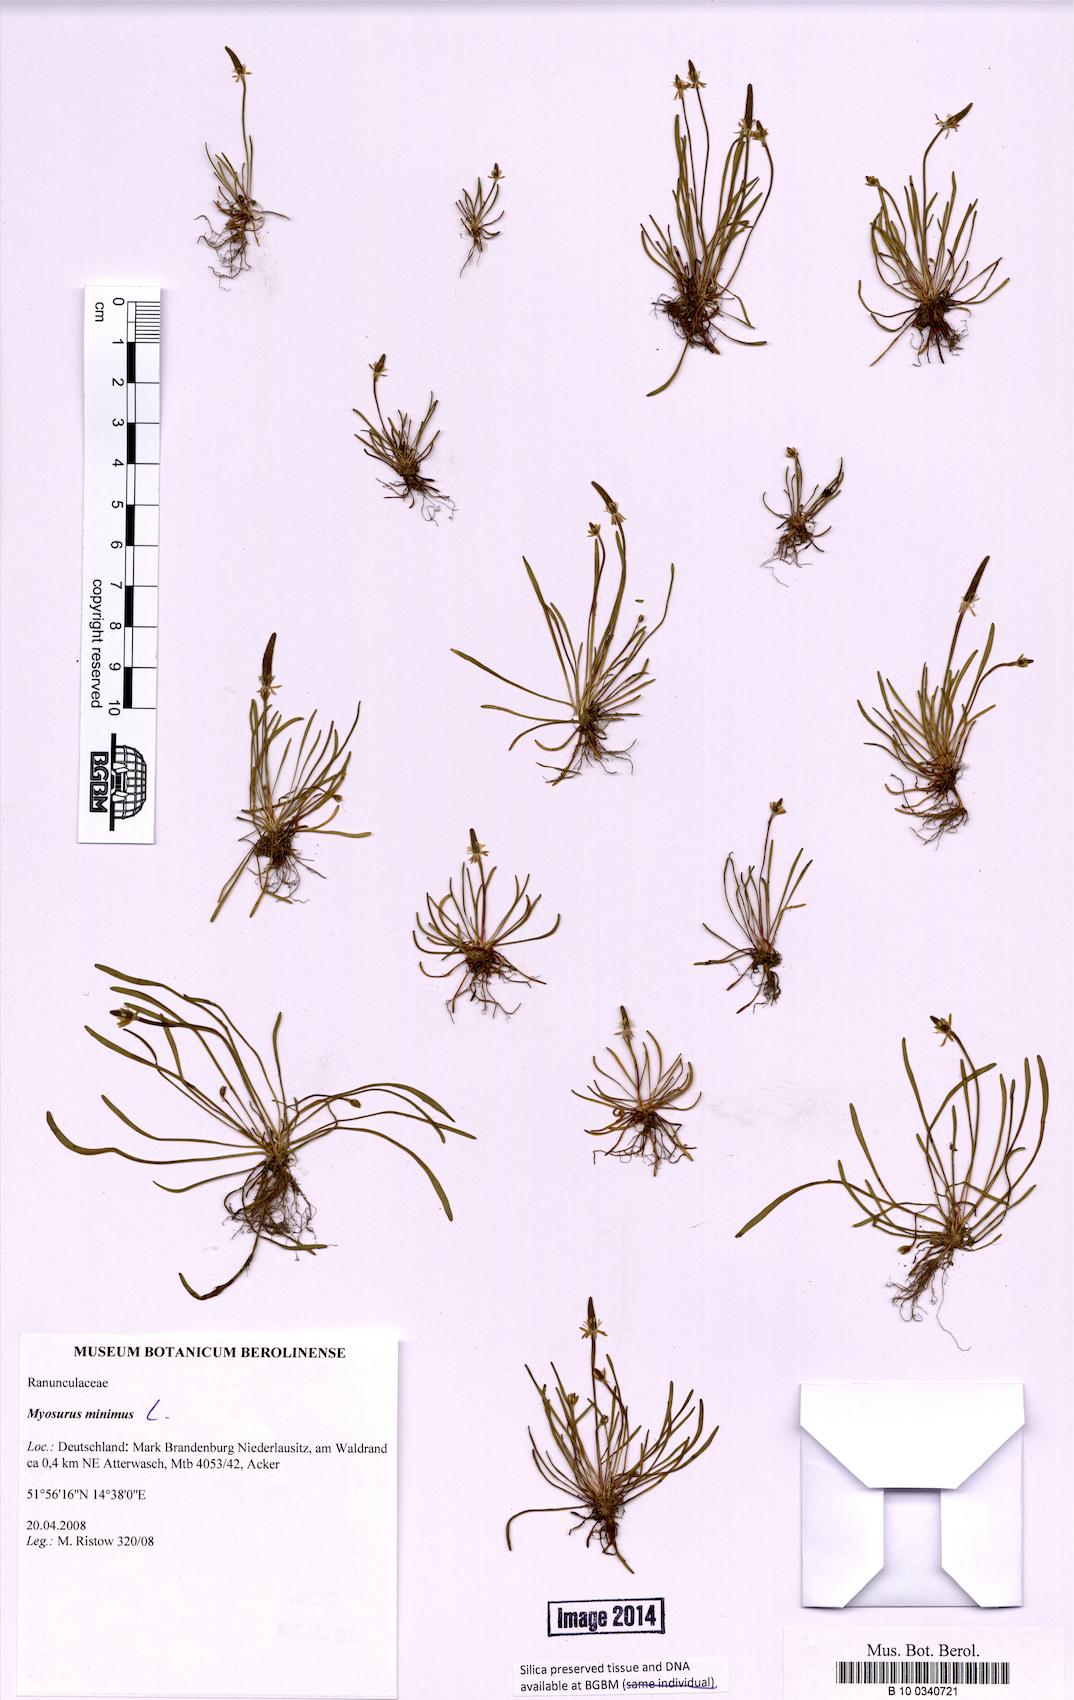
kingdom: Plantae
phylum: Tracheophyta
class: Magnoliopsida
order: Ranunculales
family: Ranunculaceae
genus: Myosurus
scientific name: Myosurus minimus
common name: Mousetail
